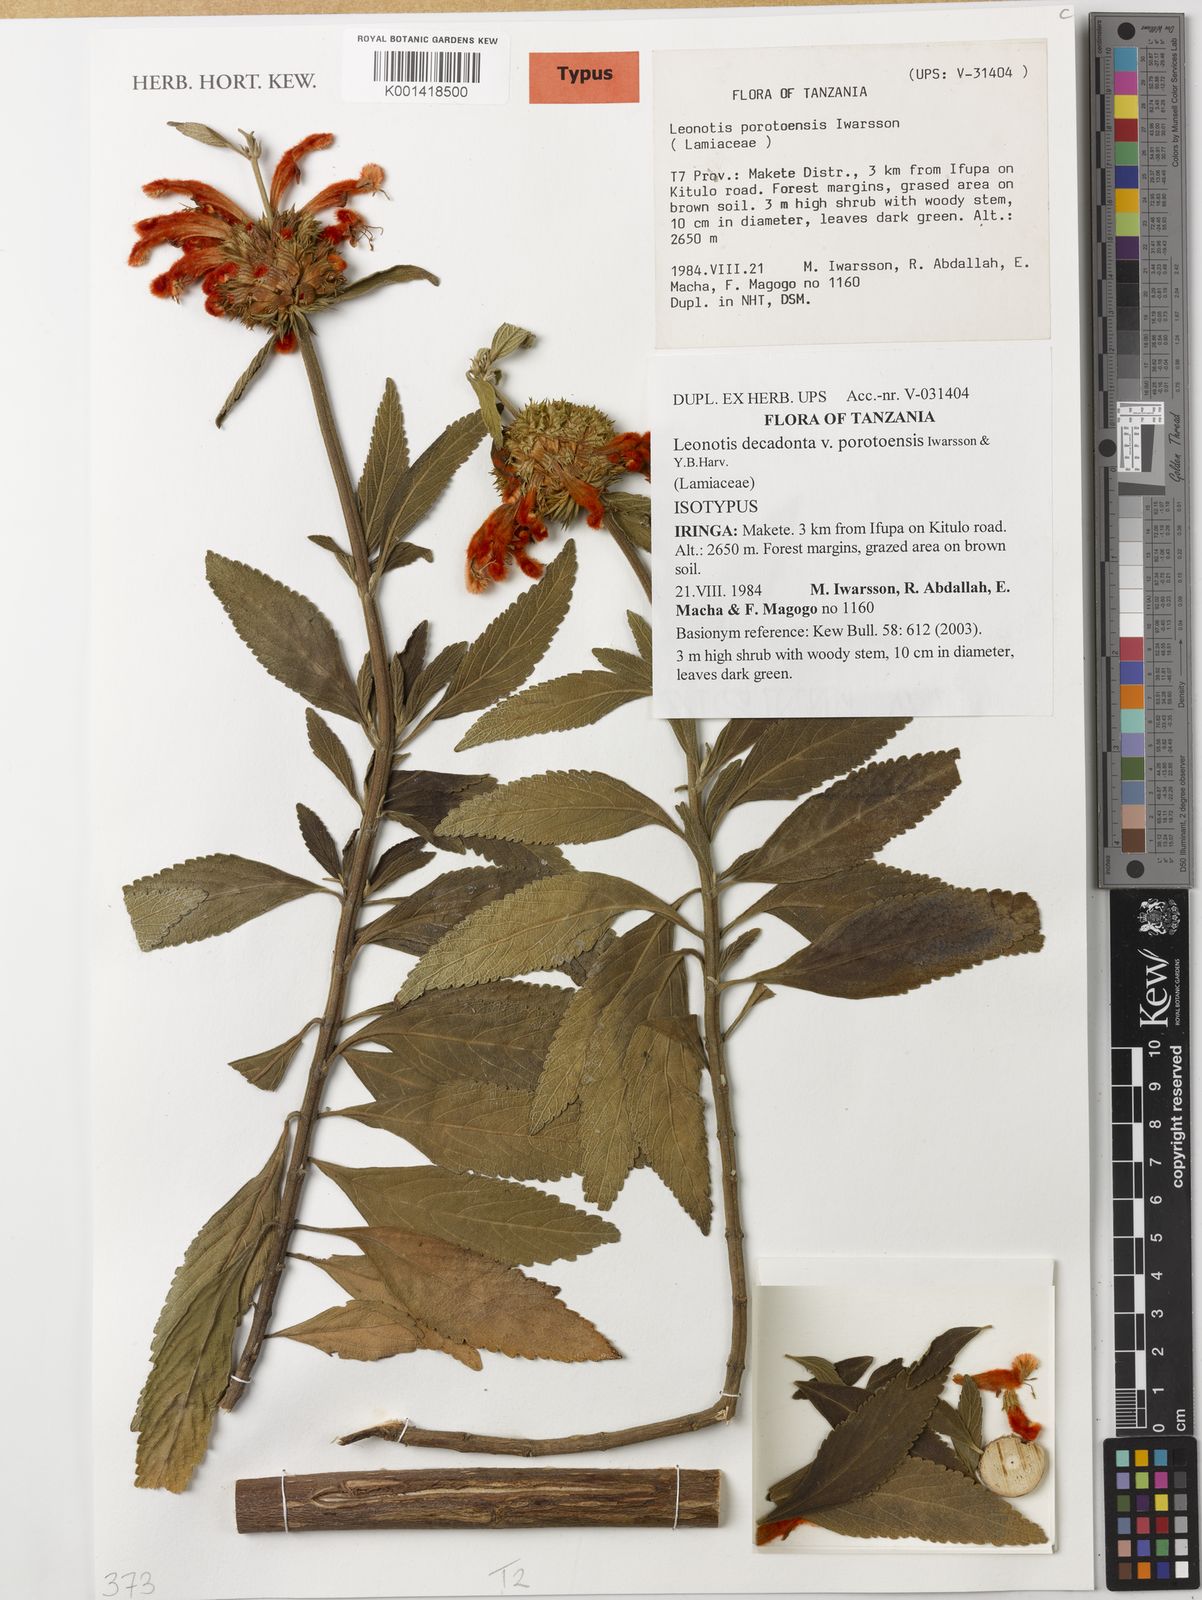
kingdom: Plantae
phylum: Tracheophyta
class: Magnoliopsida
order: Lamiales
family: Lamiaceae
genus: Leonotis
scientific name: Leonotis decadonta
